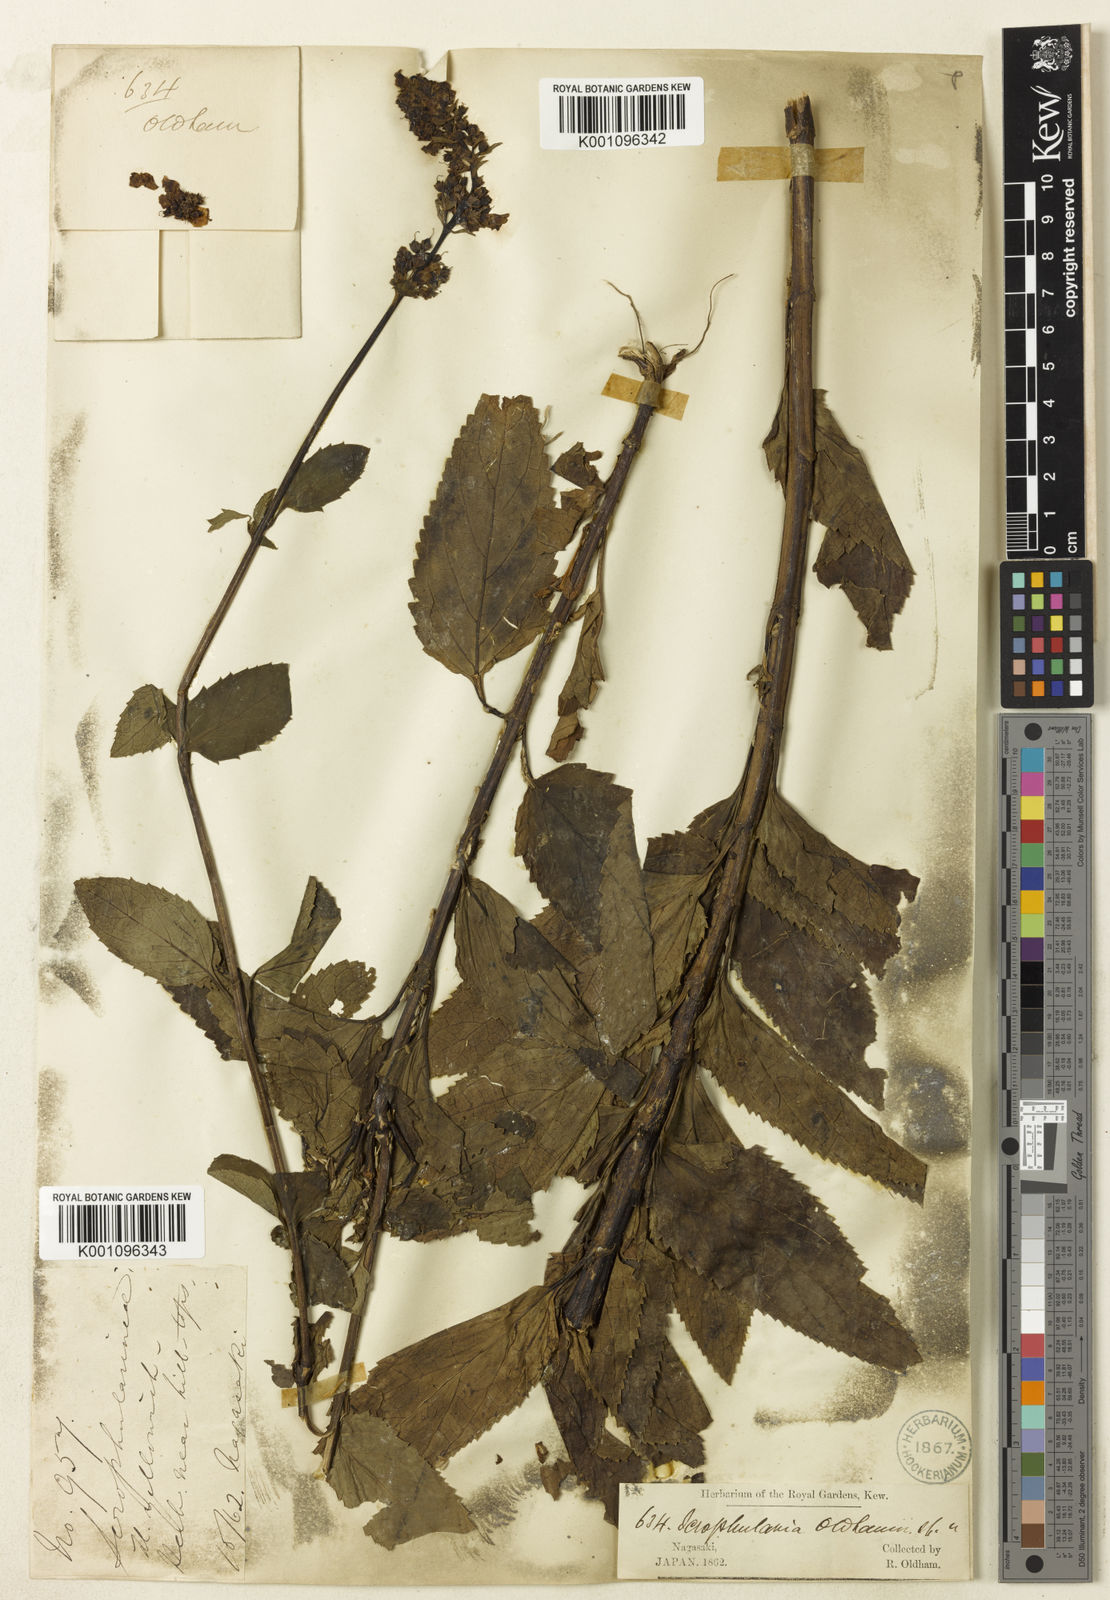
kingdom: Plantae
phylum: Tracheophyta
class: Magnoliopsida
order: Lamiales
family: Scrophulariaceae
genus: Scrophularia
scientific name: Scrophularia buergeriana
